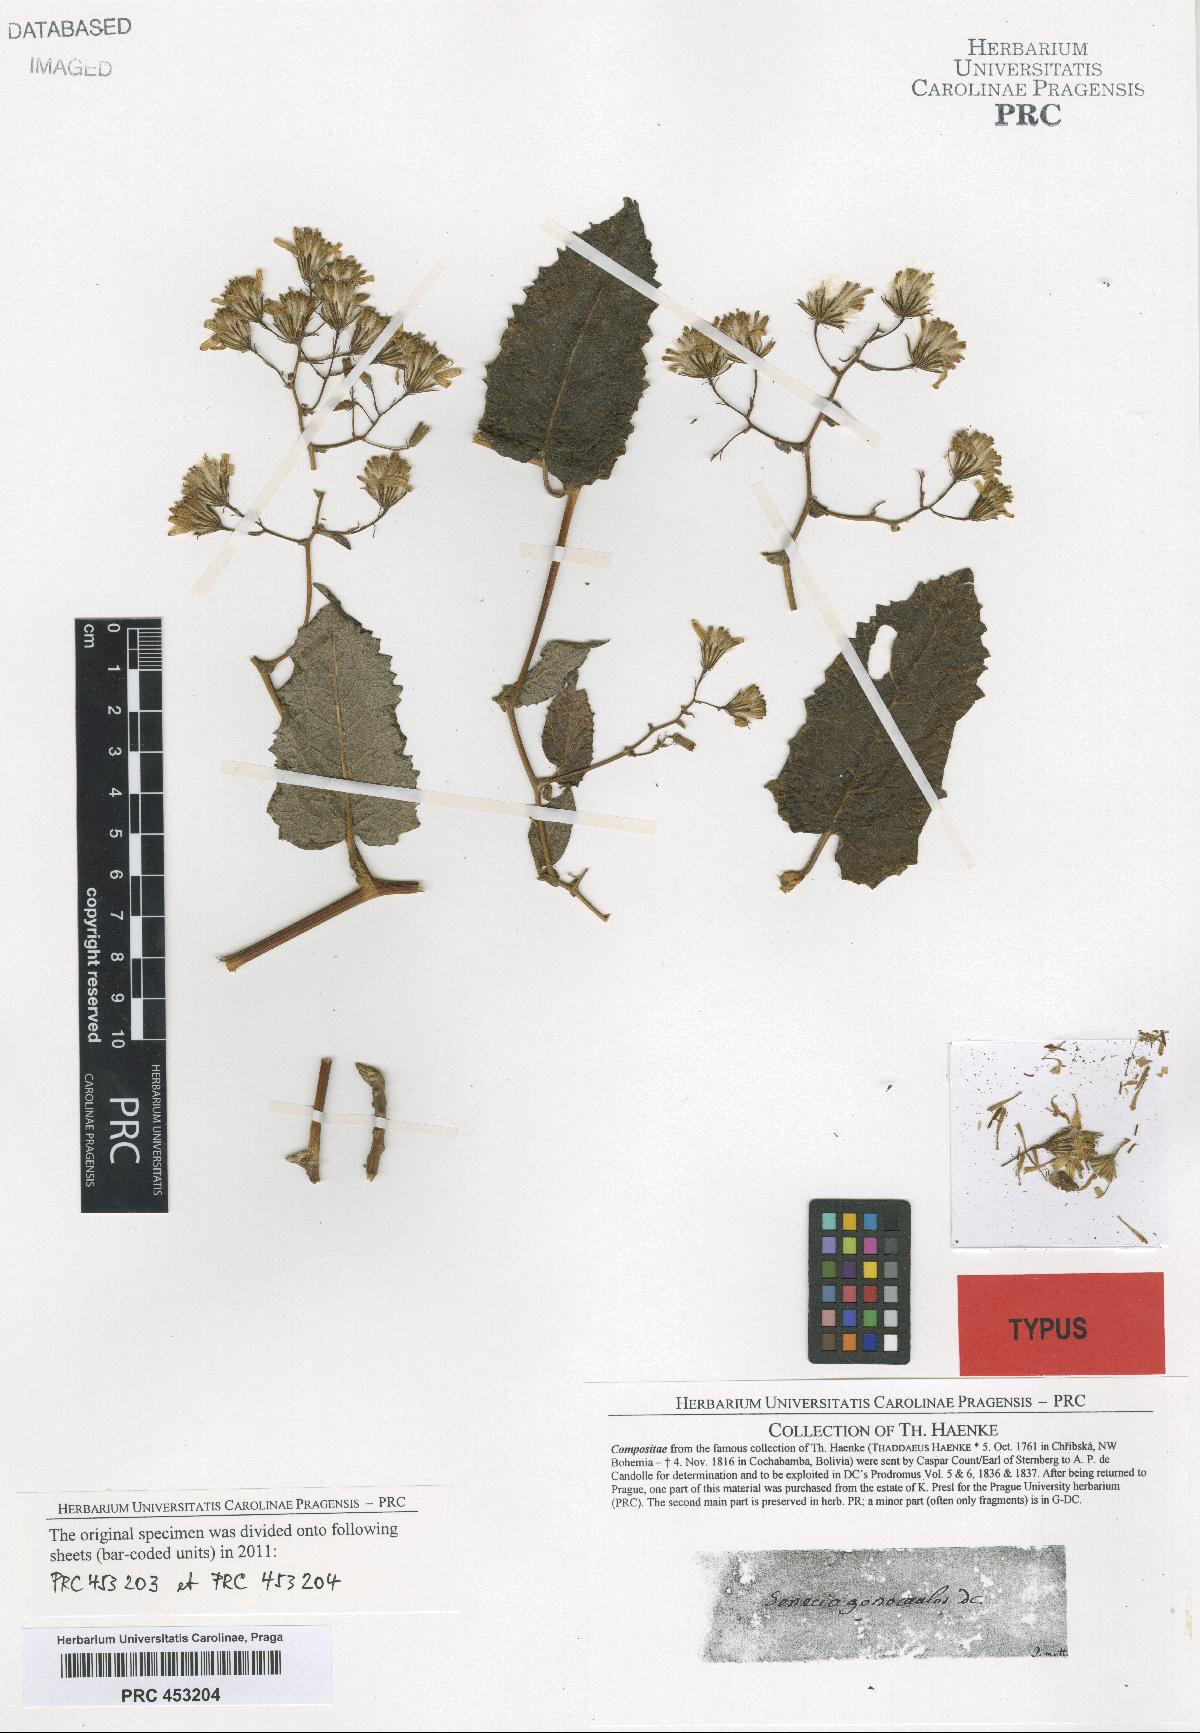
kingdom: Plantae
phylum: Tracheophyta
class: Magnoliopsida
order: Asterales
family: Asteraceae
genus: Pentacalia
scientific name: Pentacalia gonocaulos
